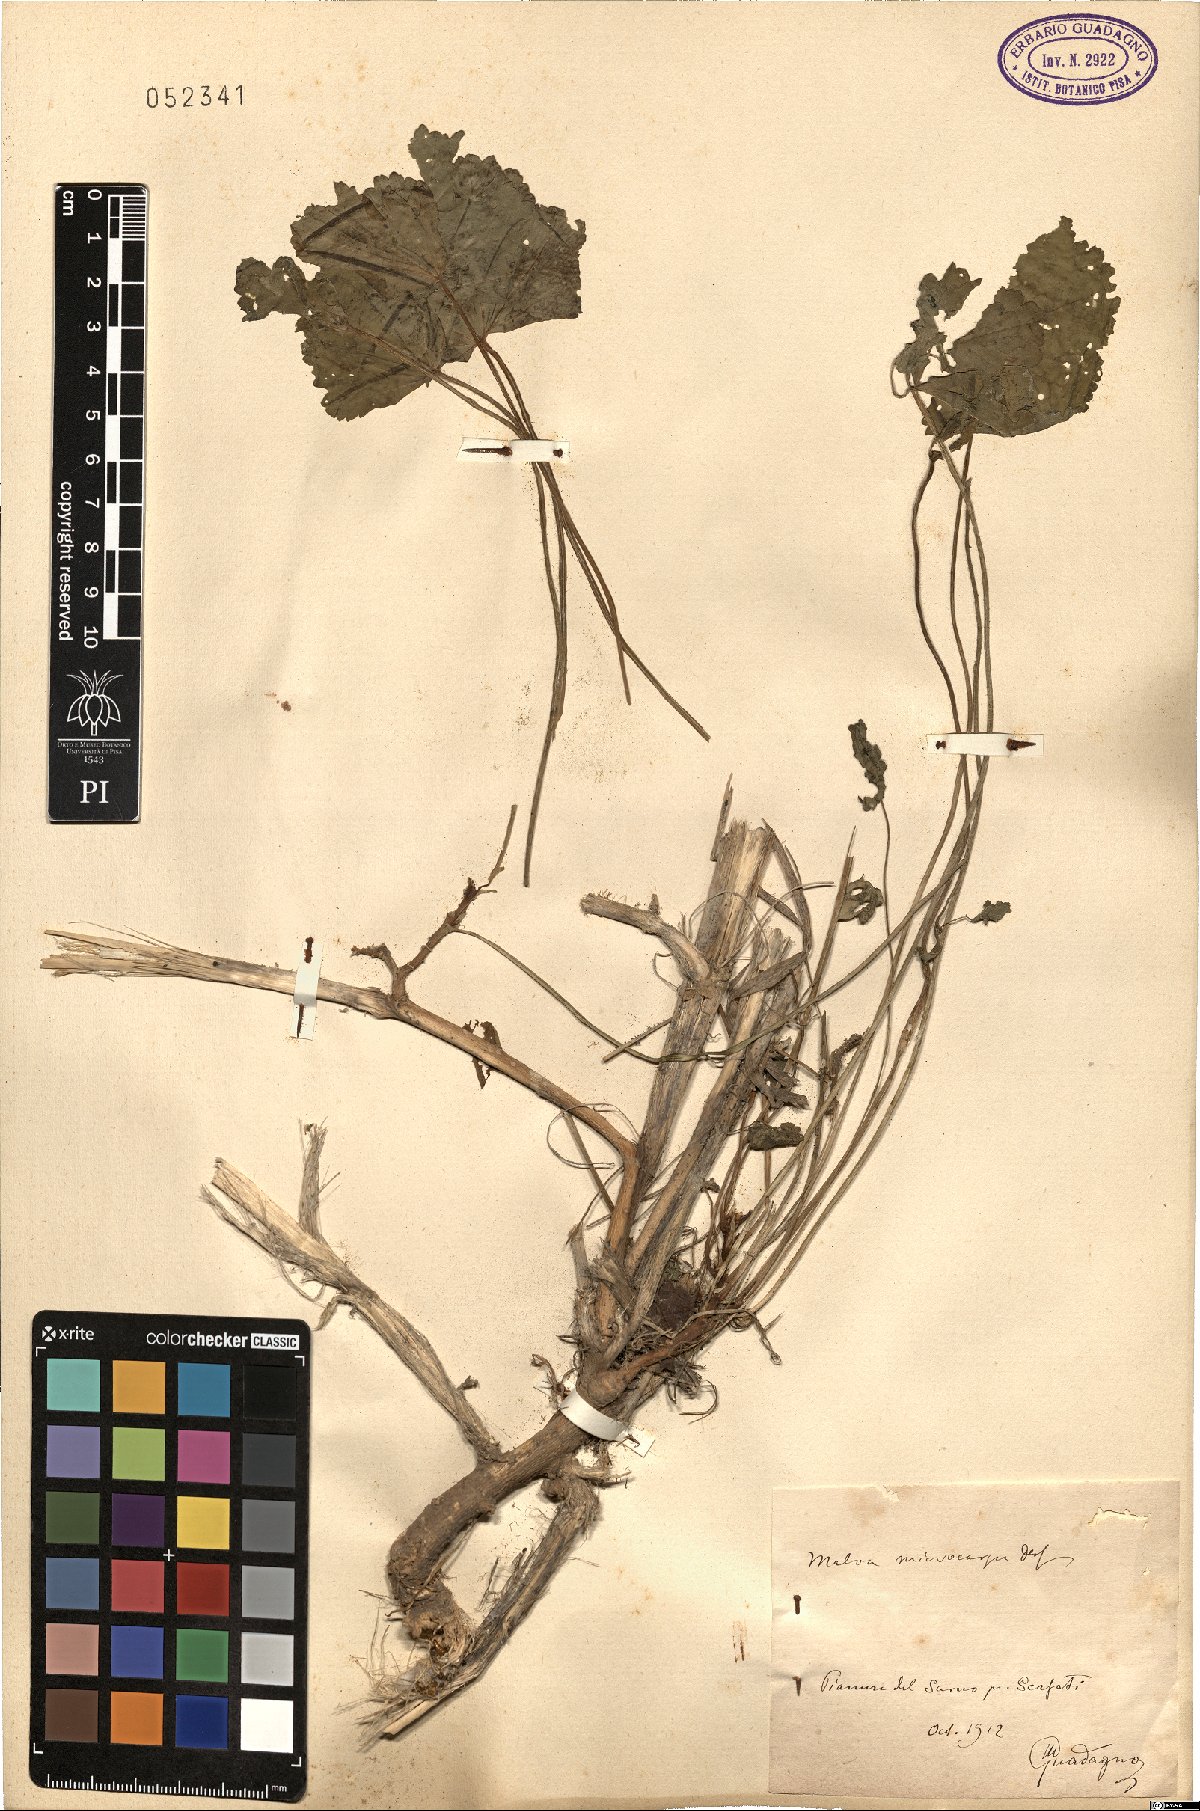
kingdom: Plantae
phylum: Tracheophyta
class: Magnoliopsida
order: Malvales
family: Malvaceae
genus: Malva
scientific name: Malva parviflora
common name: Least mallow
